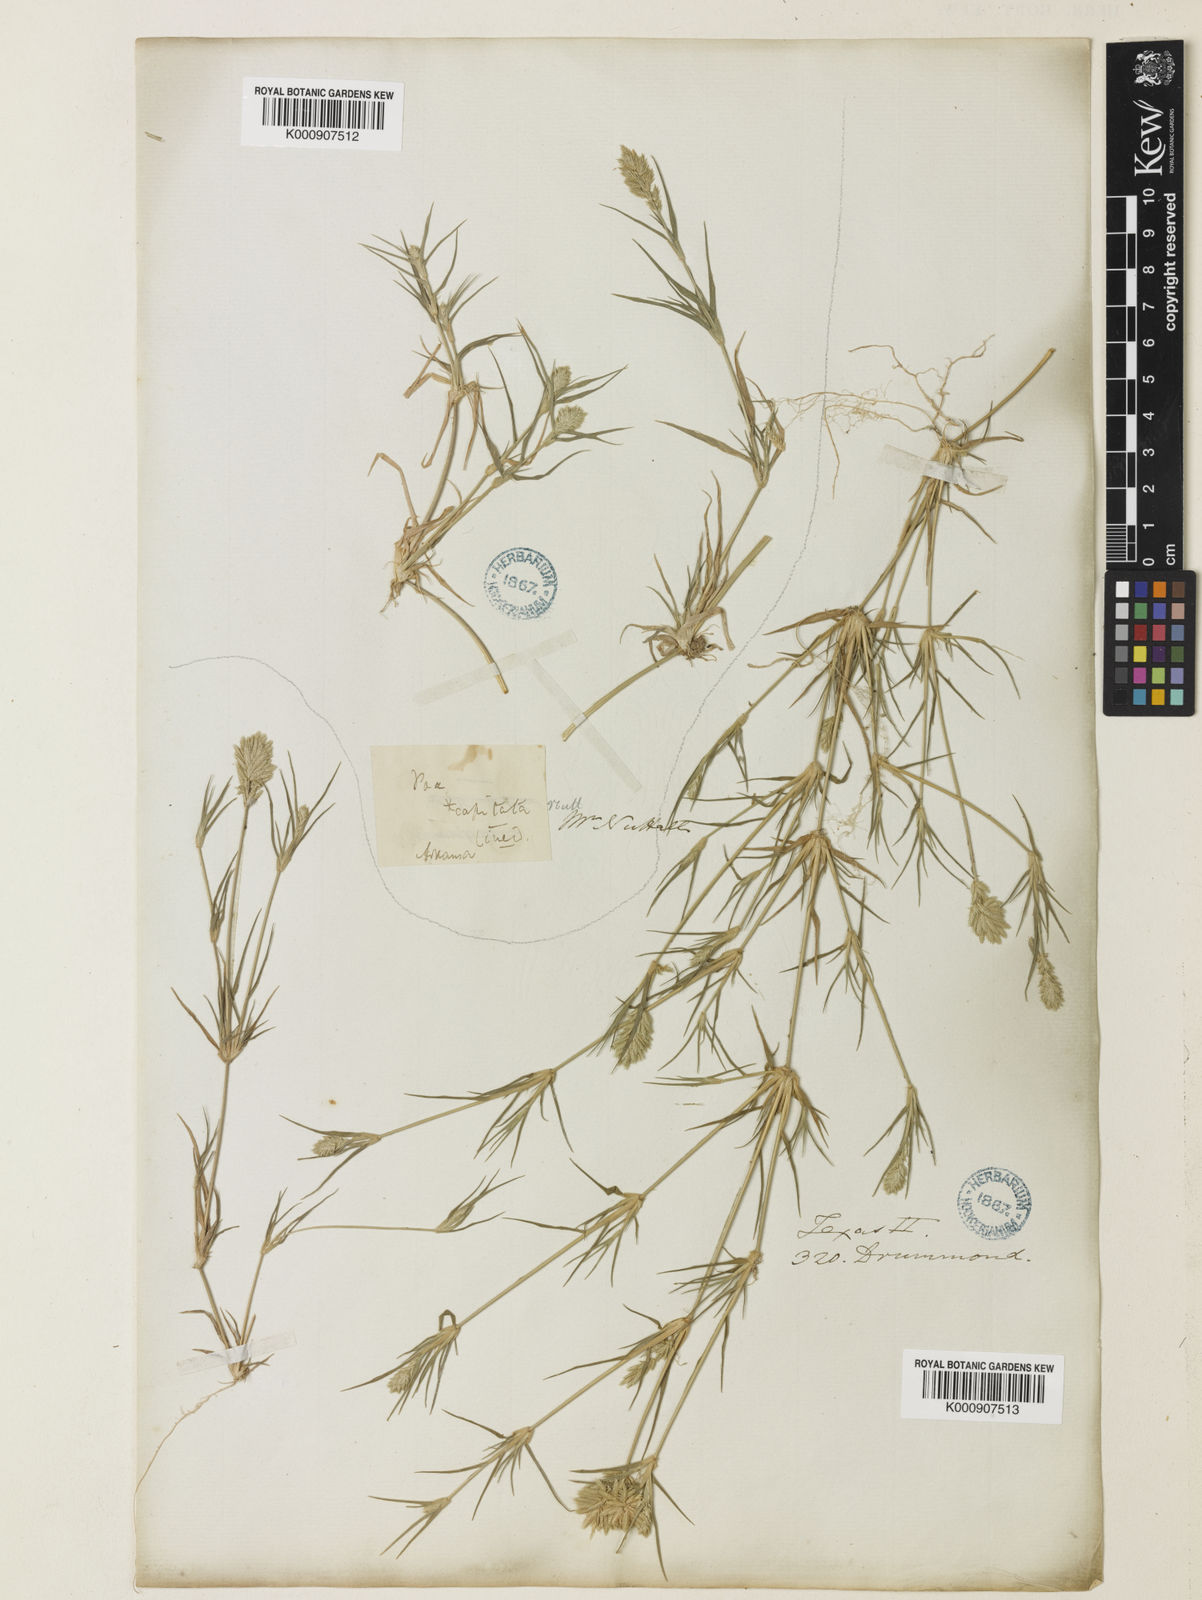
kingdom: Plantae
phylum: Tracheophyta
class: Liliopsida
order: Poales
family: Poaceae
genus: Eragrostis
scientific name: Eragrostis reptans
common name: Creeping love grass
